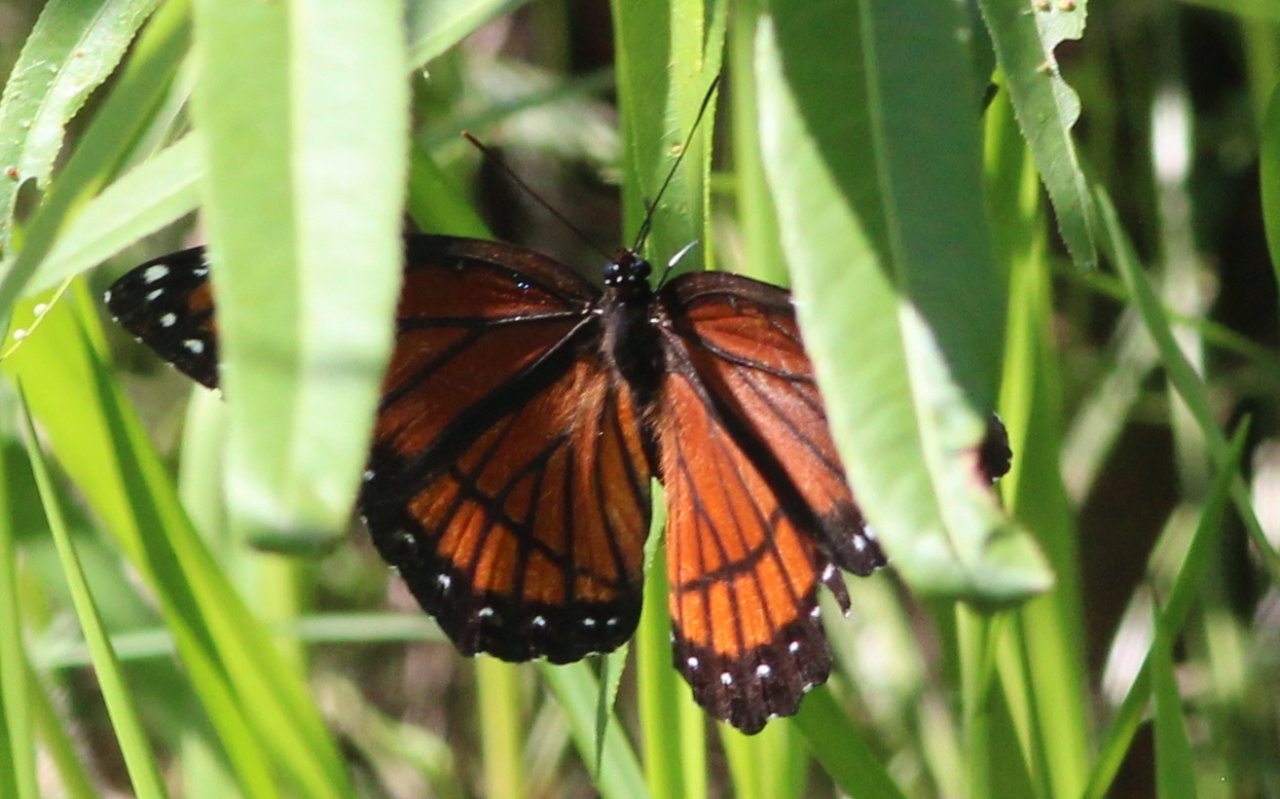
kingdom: Animalia
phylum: Arthropoda
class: Insecta
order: Lepidoptera
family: Nymphalidae
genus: Limenitis
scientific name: Limenitis archippus
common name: Viceroy
